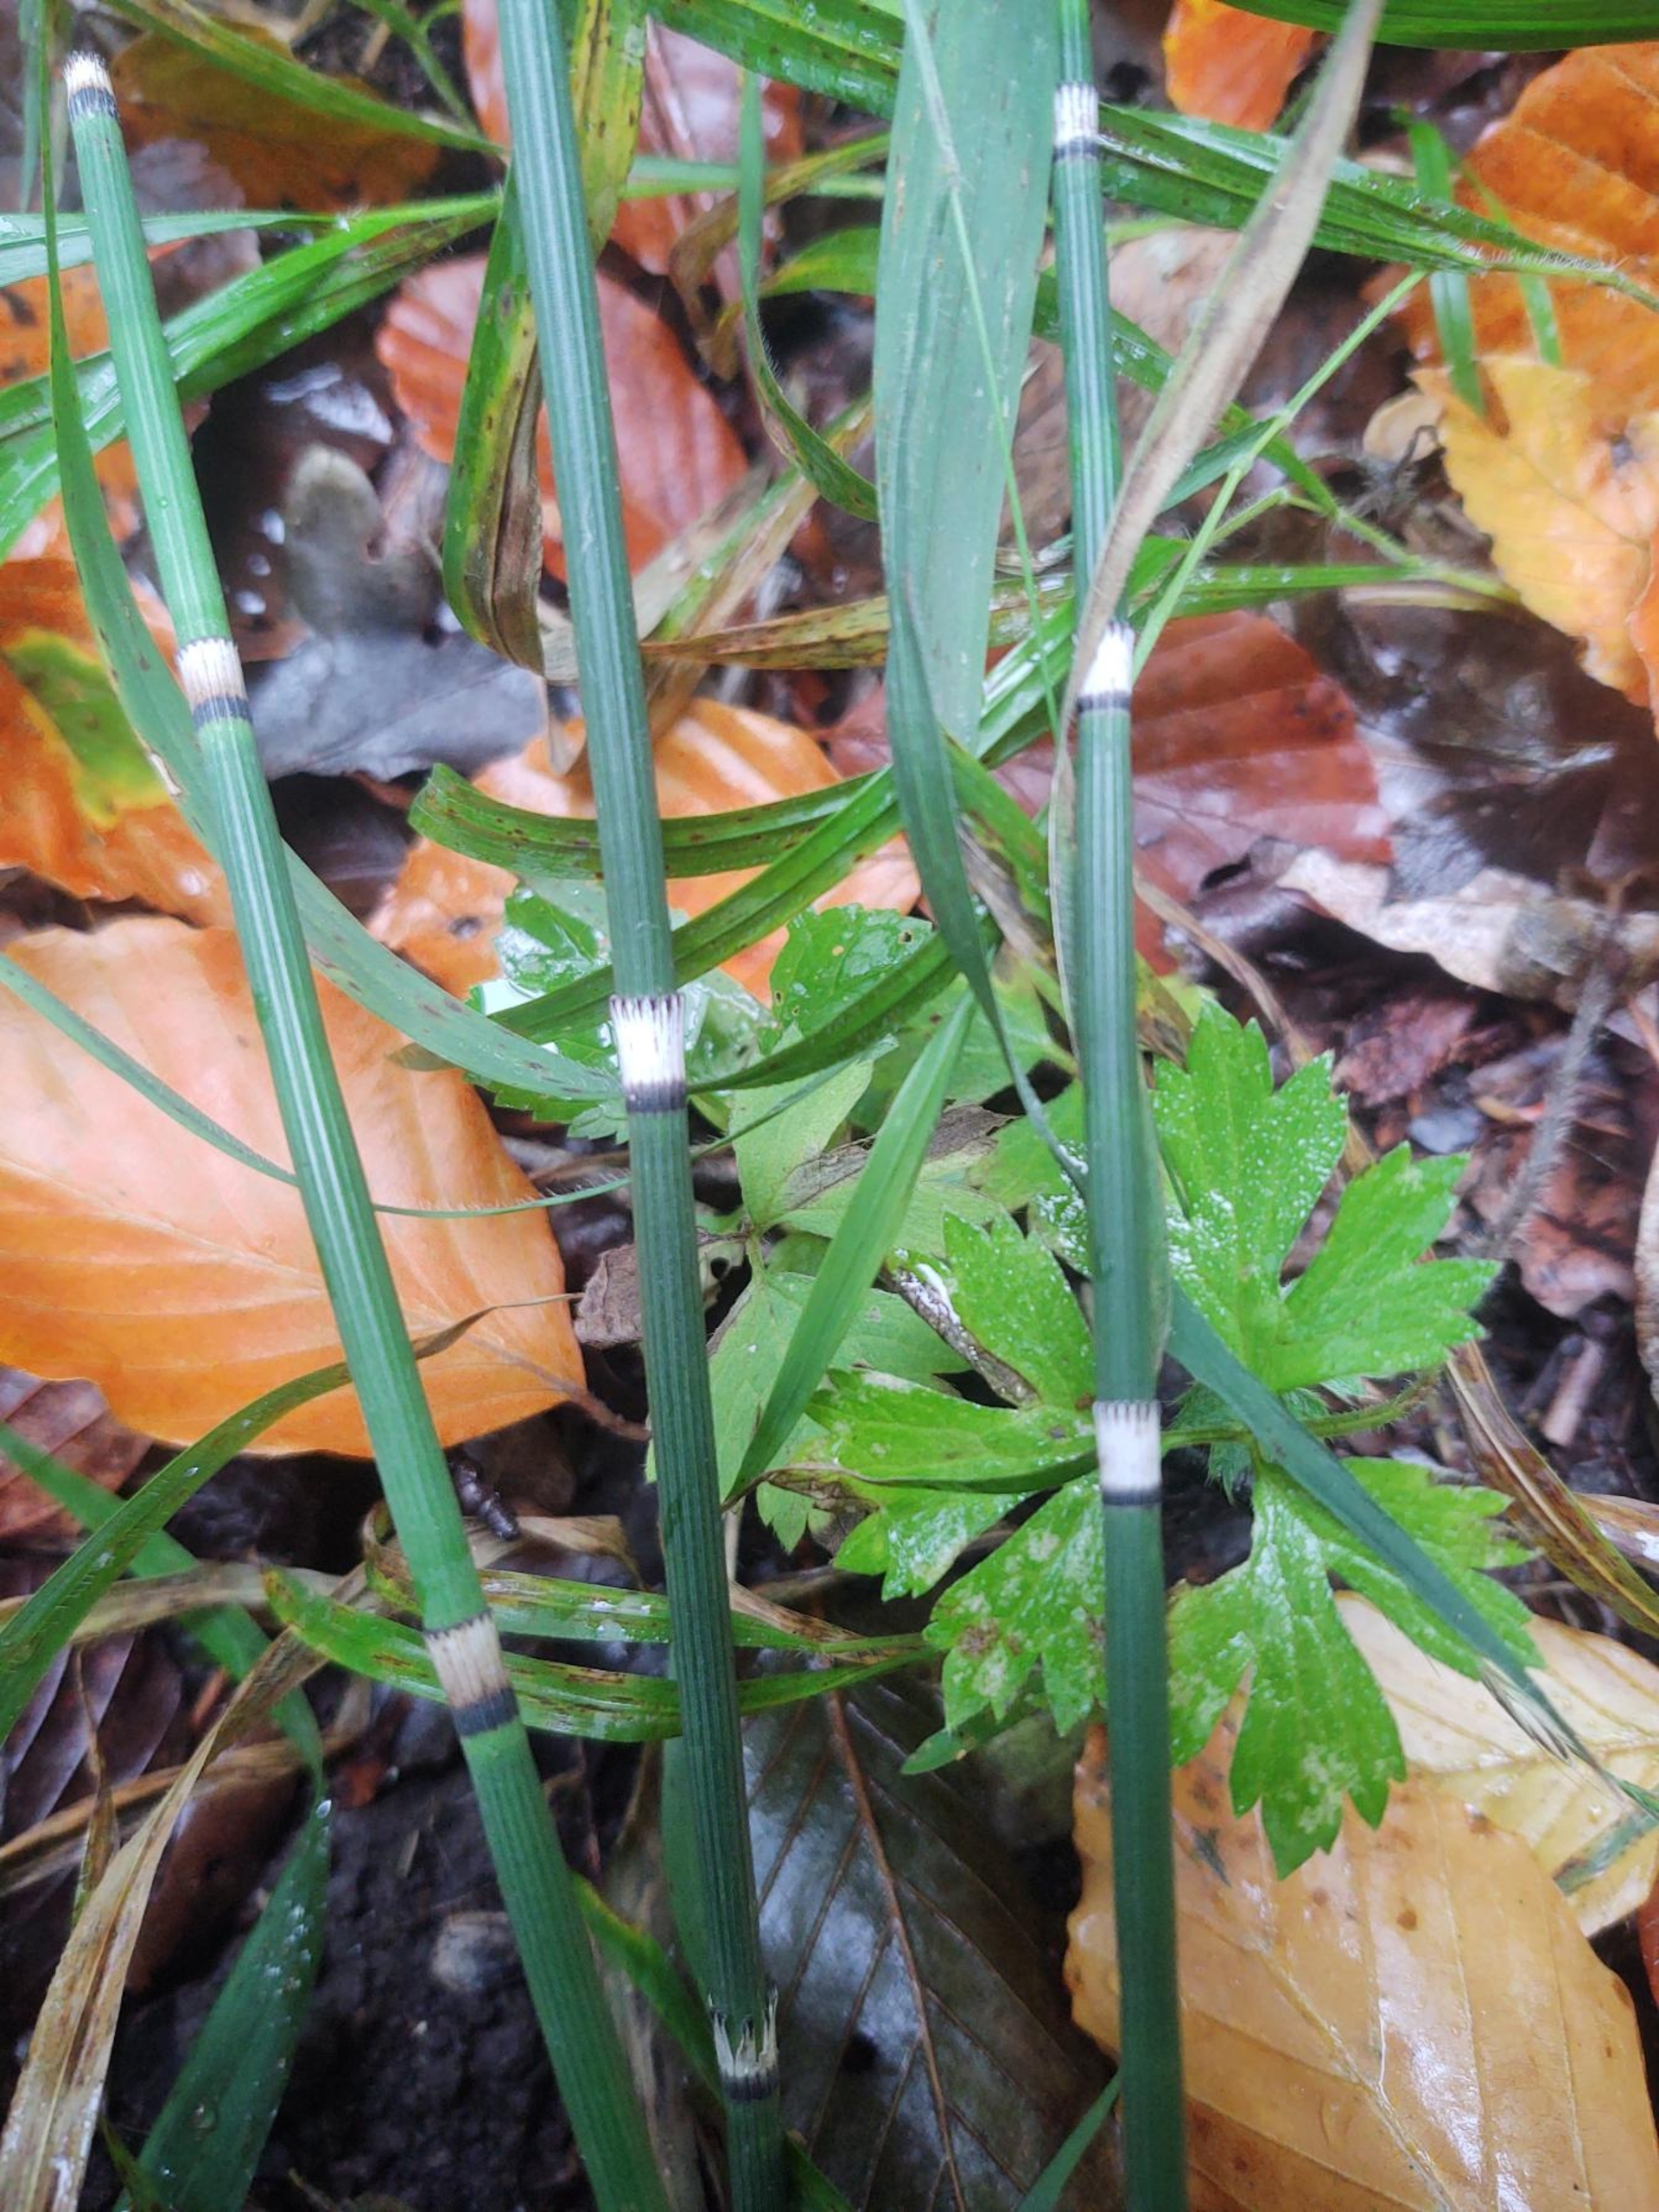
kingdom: Plantae
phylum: Tracheophyta
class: Polypodiopsida
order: Equisetales
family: Equisetaceae
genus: Equisetum
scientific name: Equisetum hyemale
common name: Skavgræs
